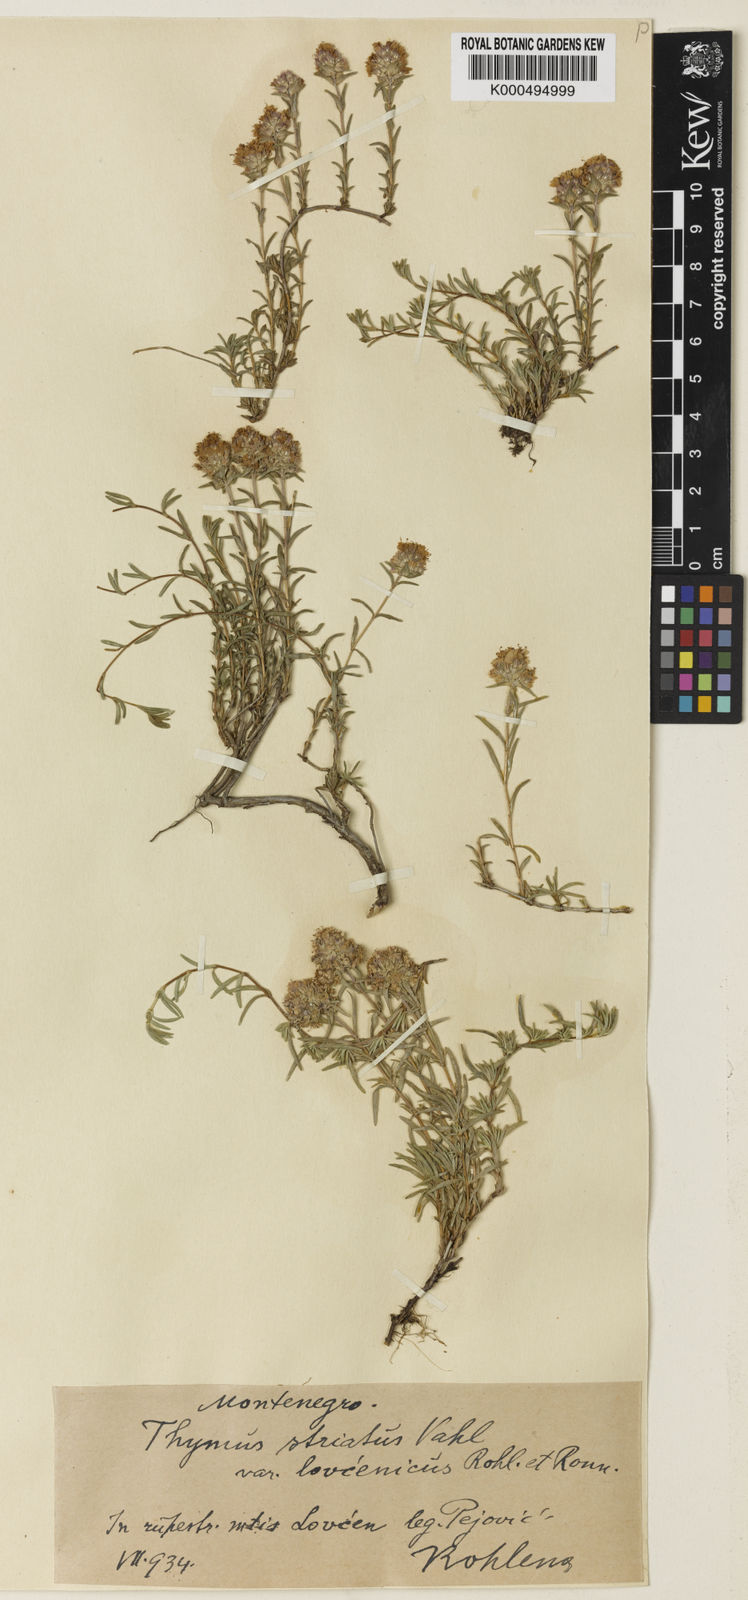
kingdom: Plantae
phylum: Tracheophyta
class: Magnoliopsida
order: Lamiales
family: Lamiaceae
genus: Thymus
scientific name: Thymus striatus
